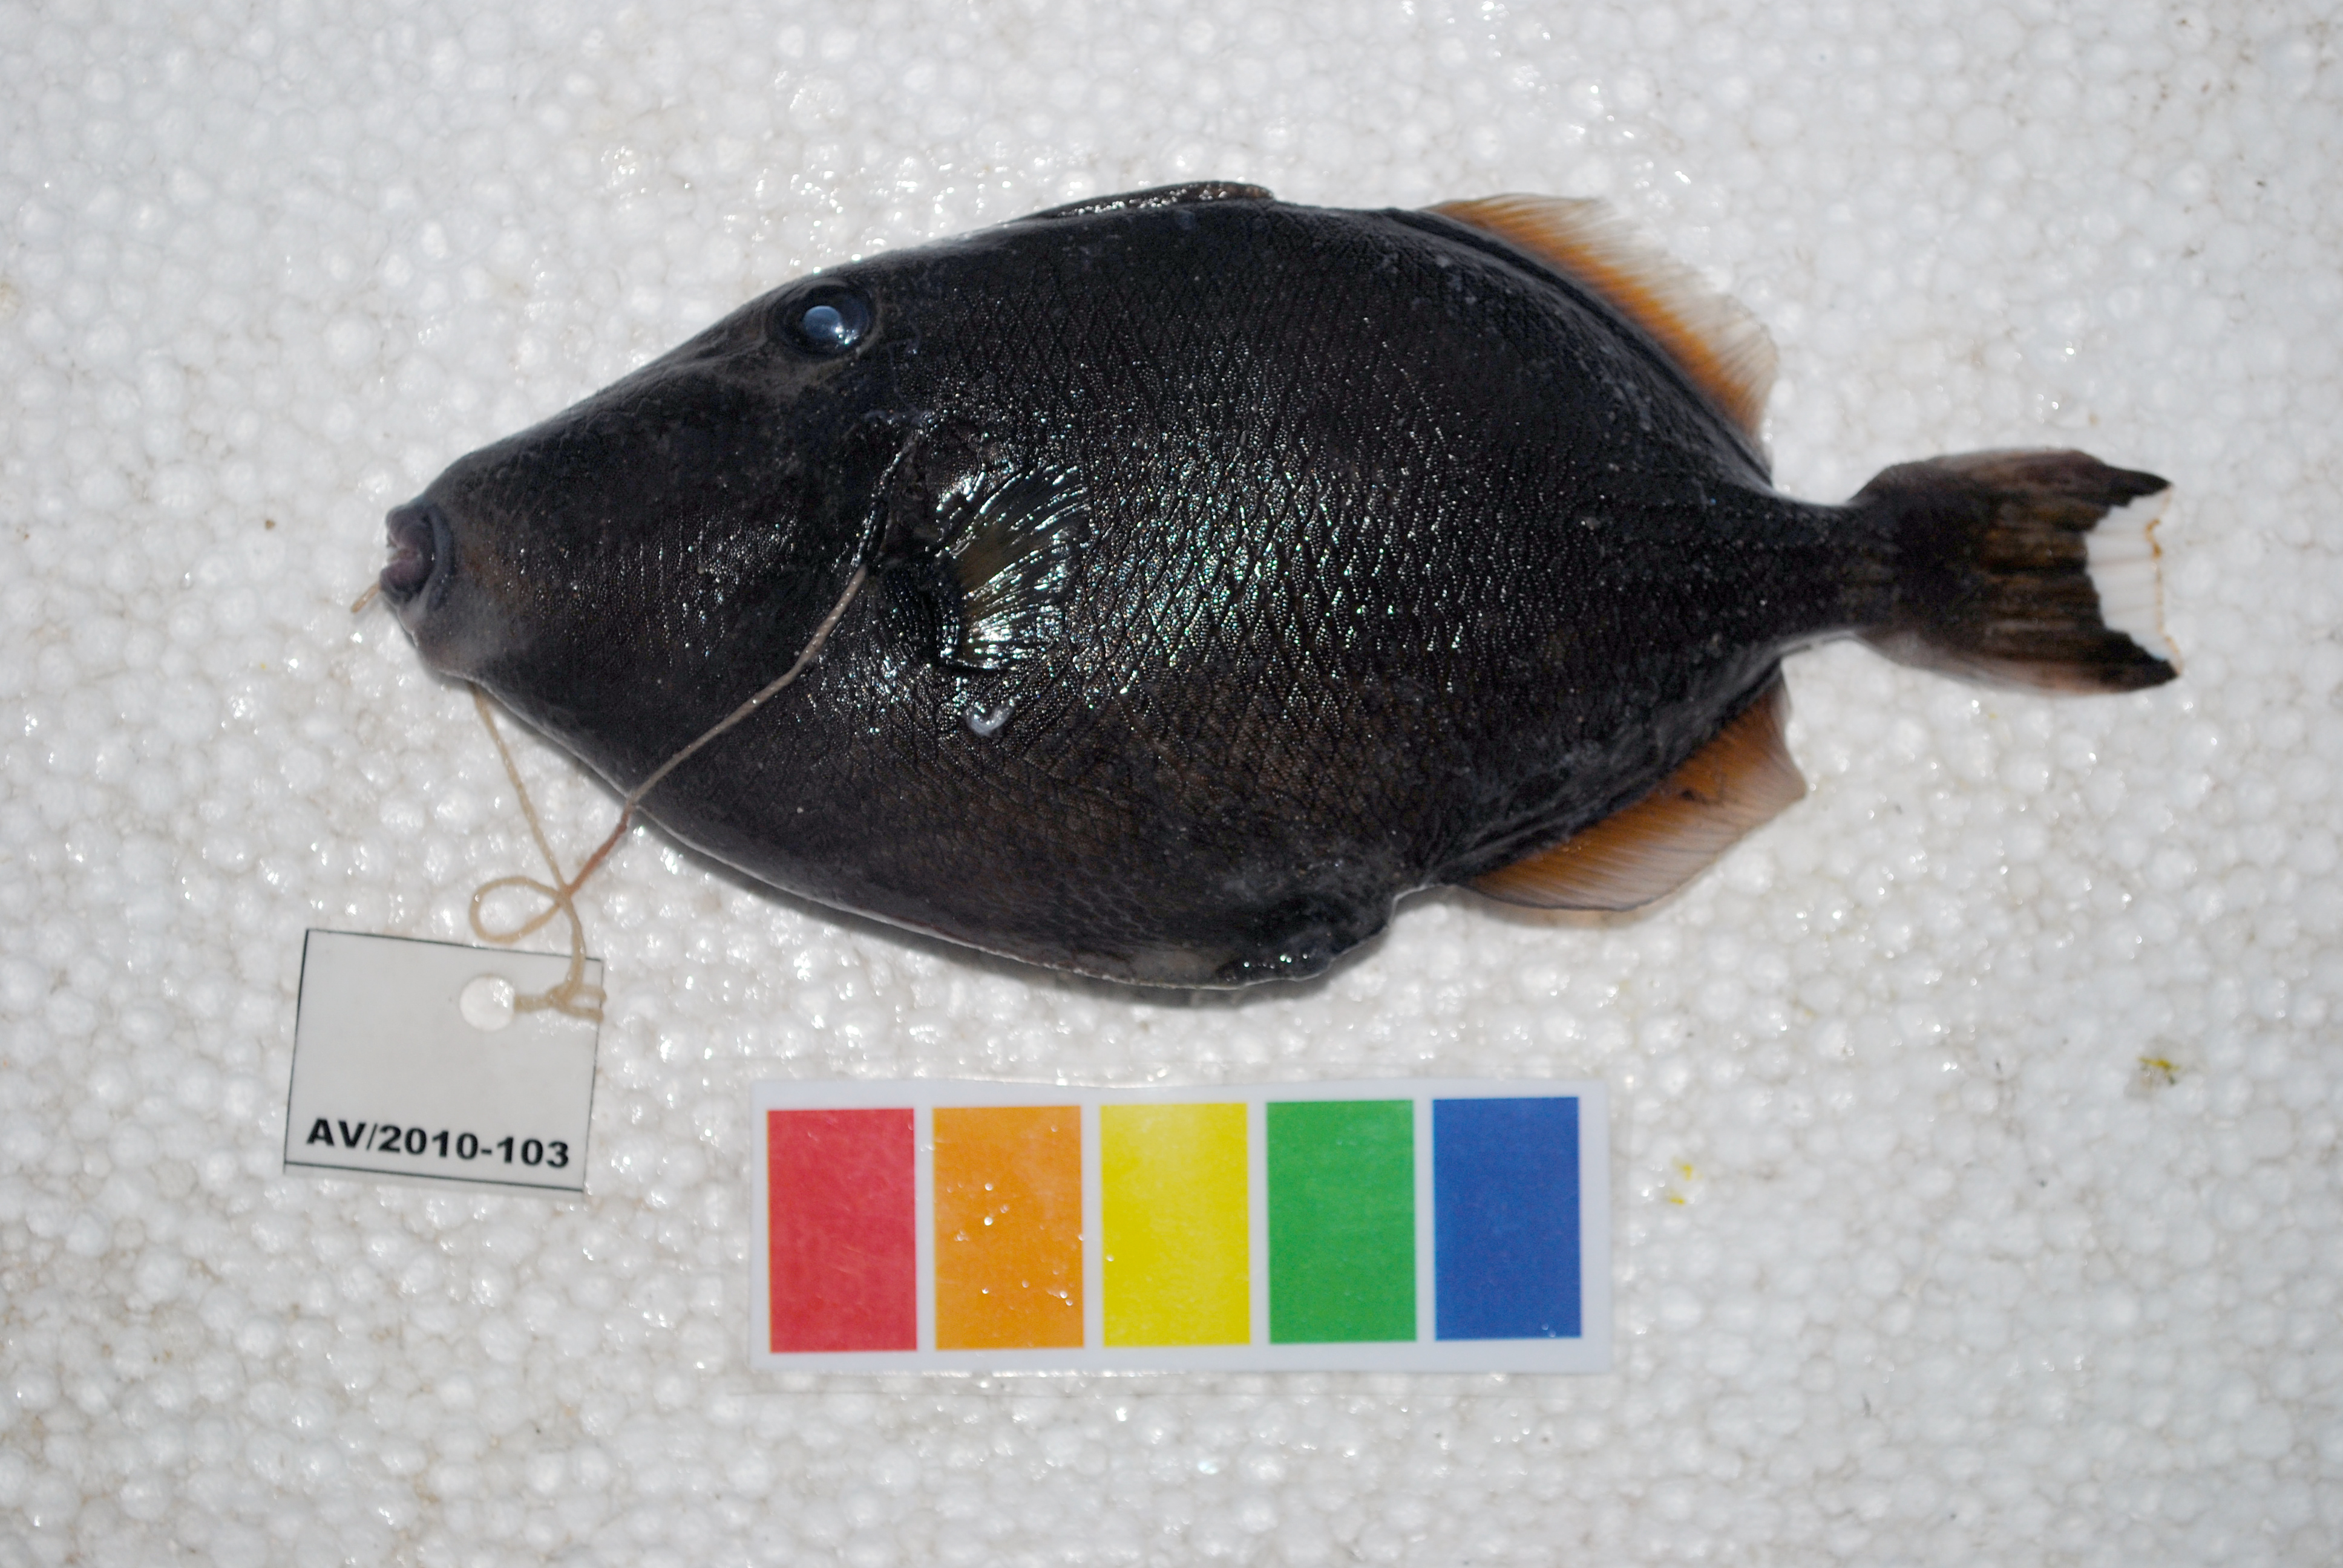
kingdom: Animalia
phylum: Chordata
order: Tetraodontiformes
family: Balistidae
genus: Sufflamen
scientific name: Sufflamen chrysopterum
